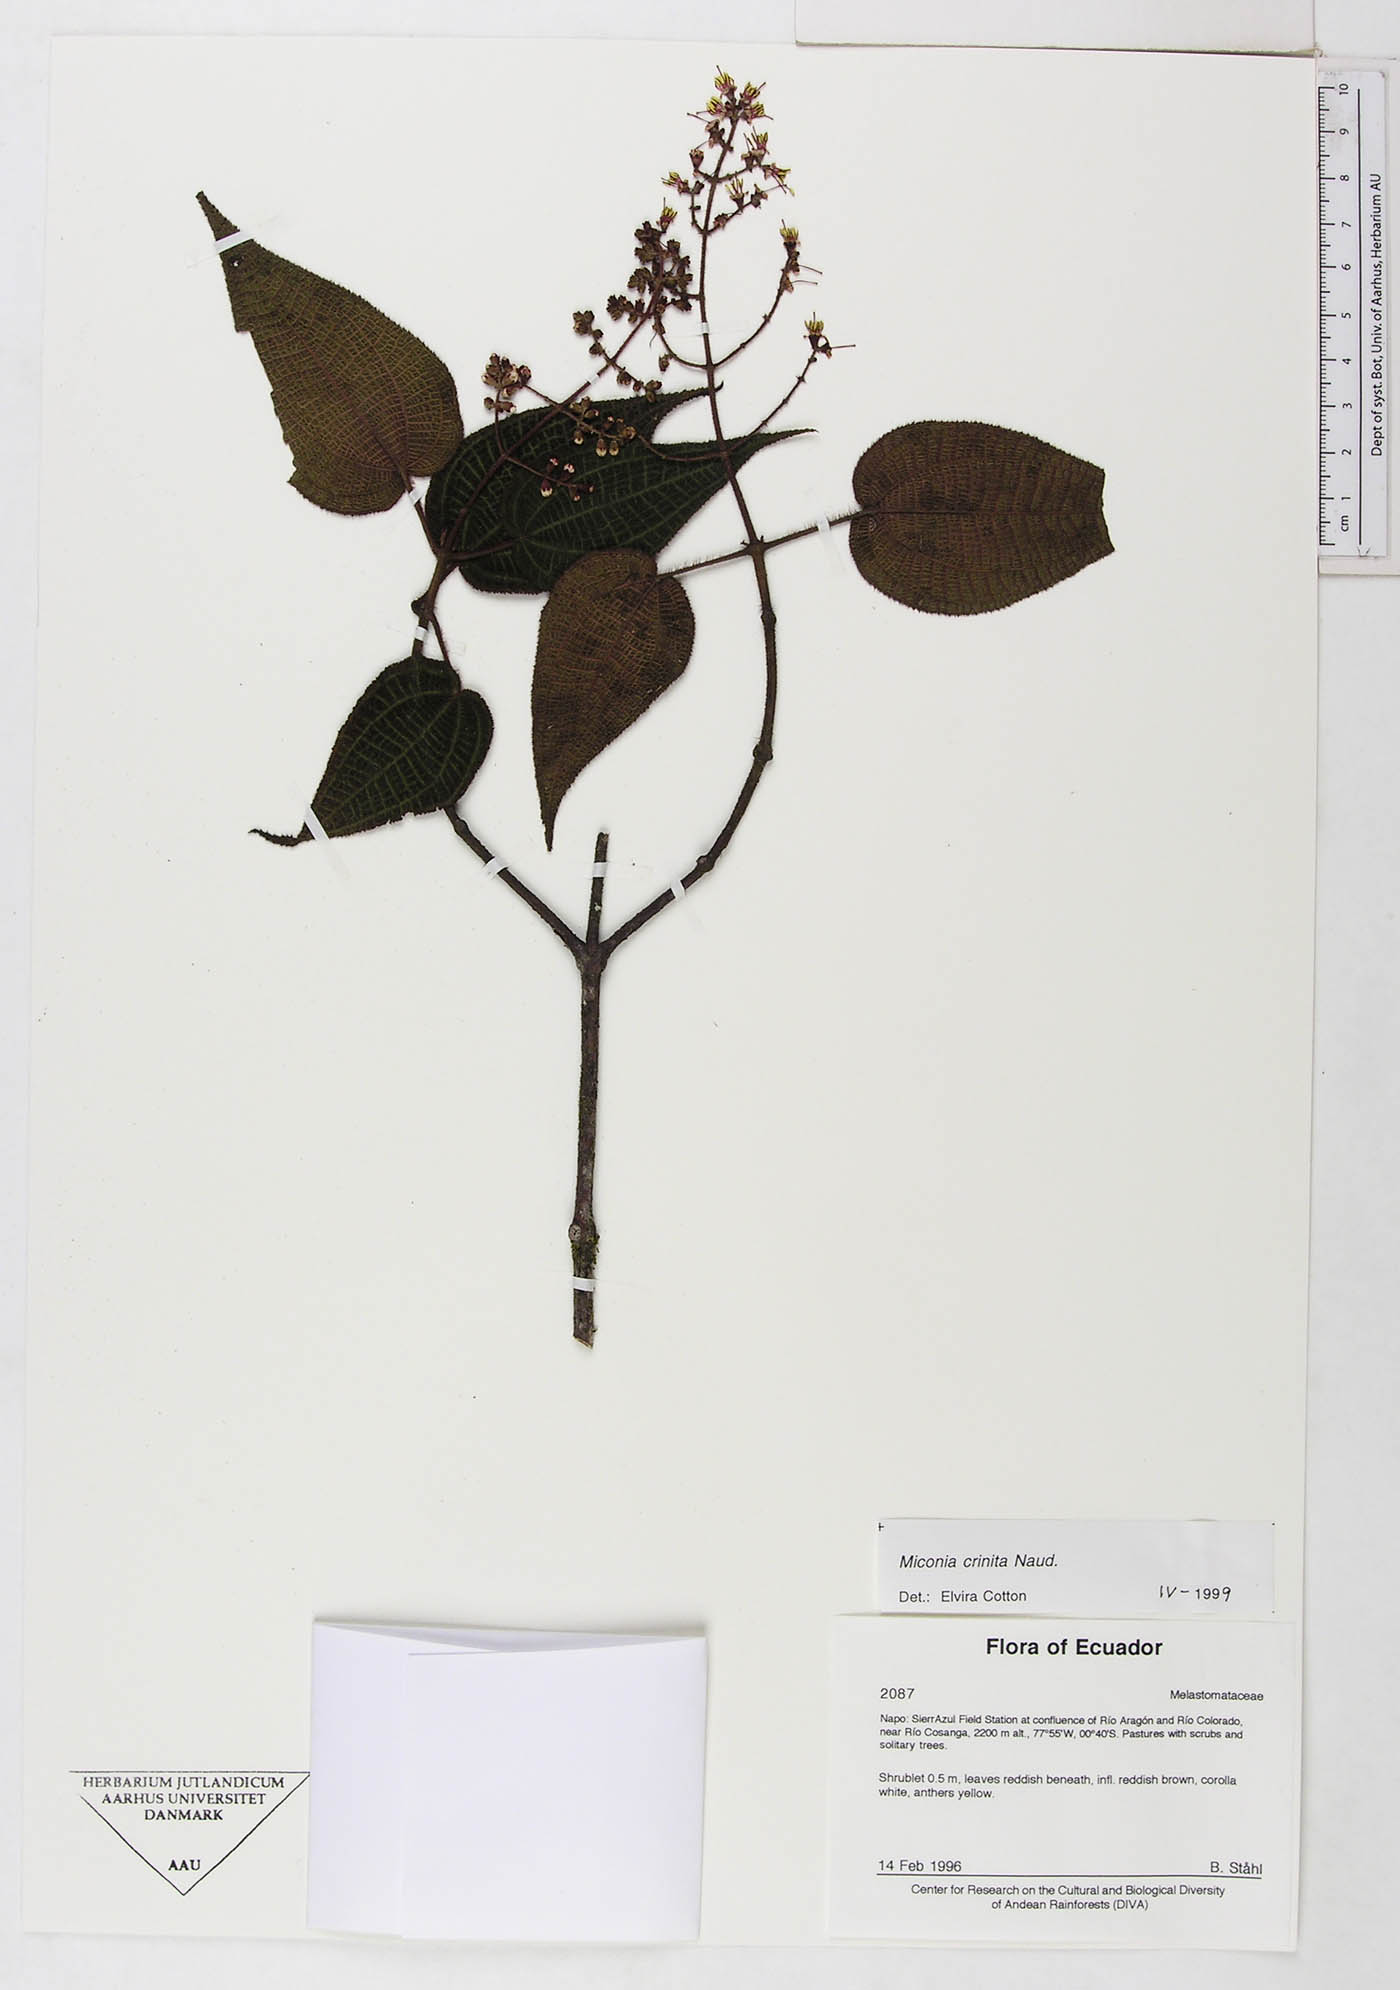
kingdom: Plantae
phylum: Tracheophyta
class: Magnoliopsida
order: Myrtales
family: Melastomataceae
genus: Miconia
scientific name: Miconia crinita
